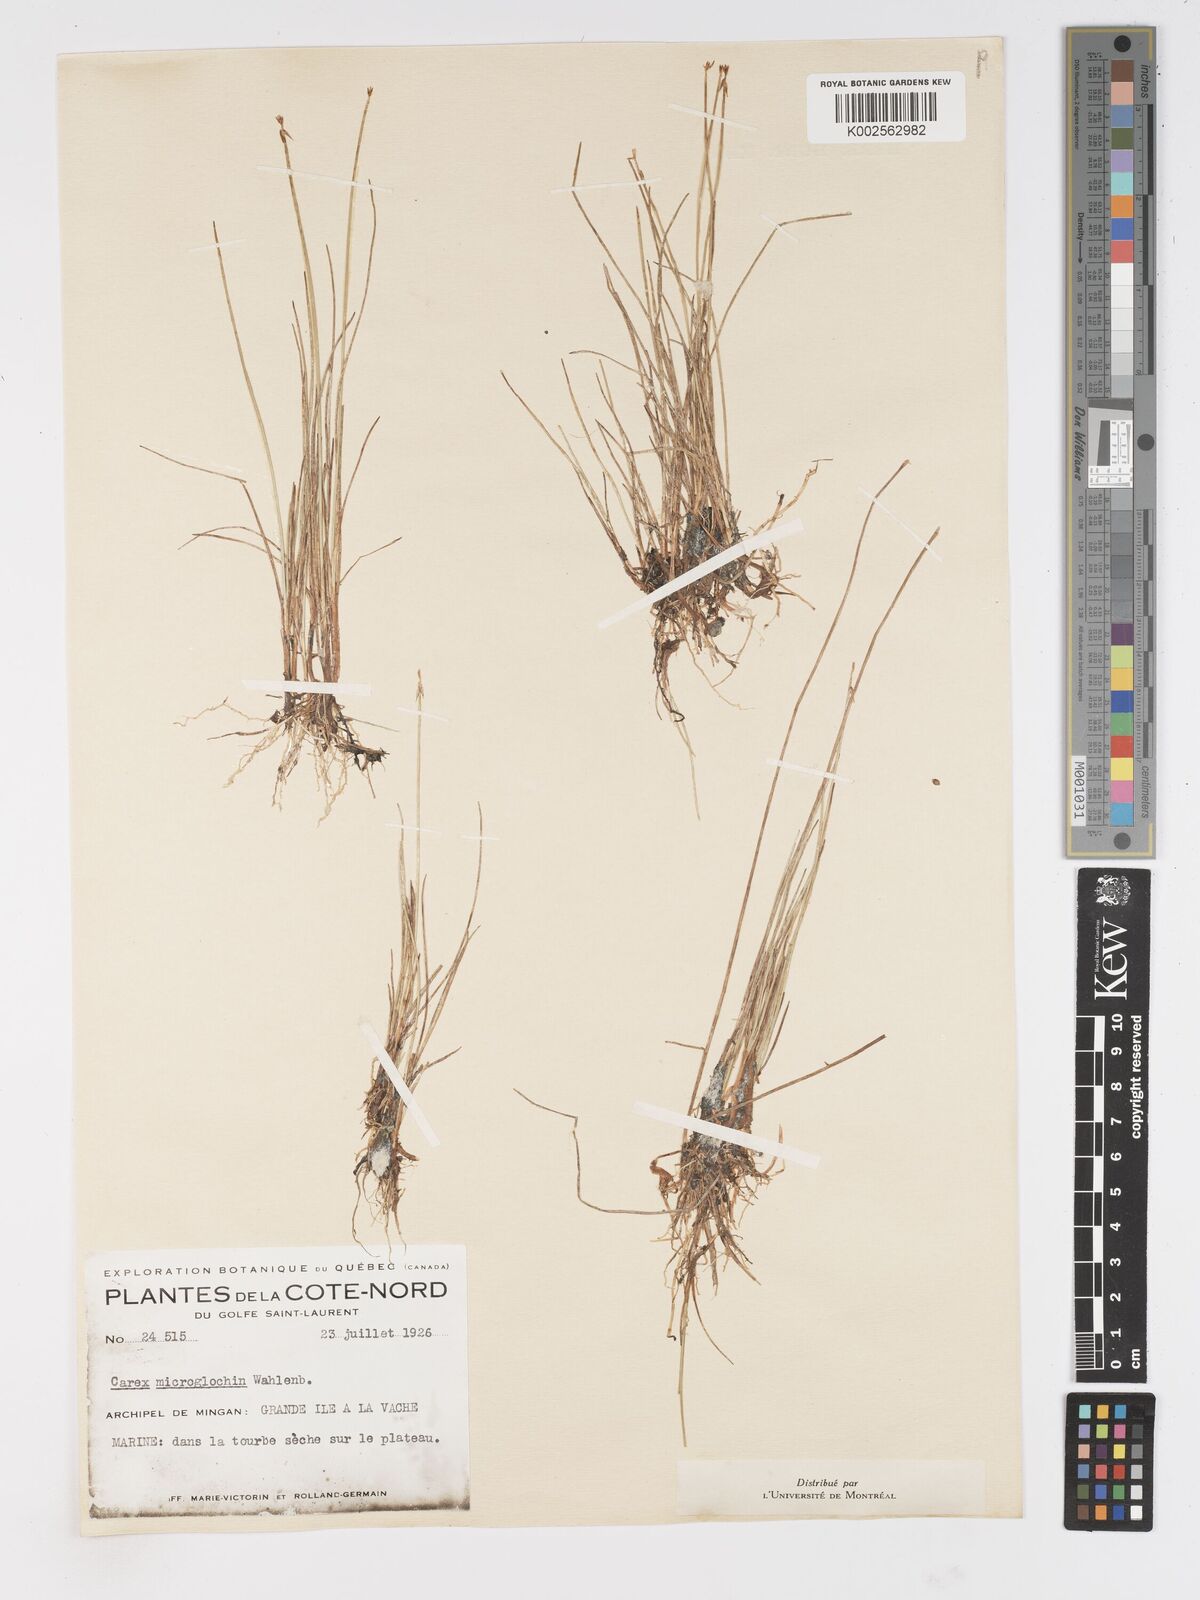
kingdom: Plantae
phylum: Tracheophyta
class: Liliopsida
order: Poales
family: Cyperaceae
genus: Carex
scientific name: Carex microglochin
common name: Bristle sedge
